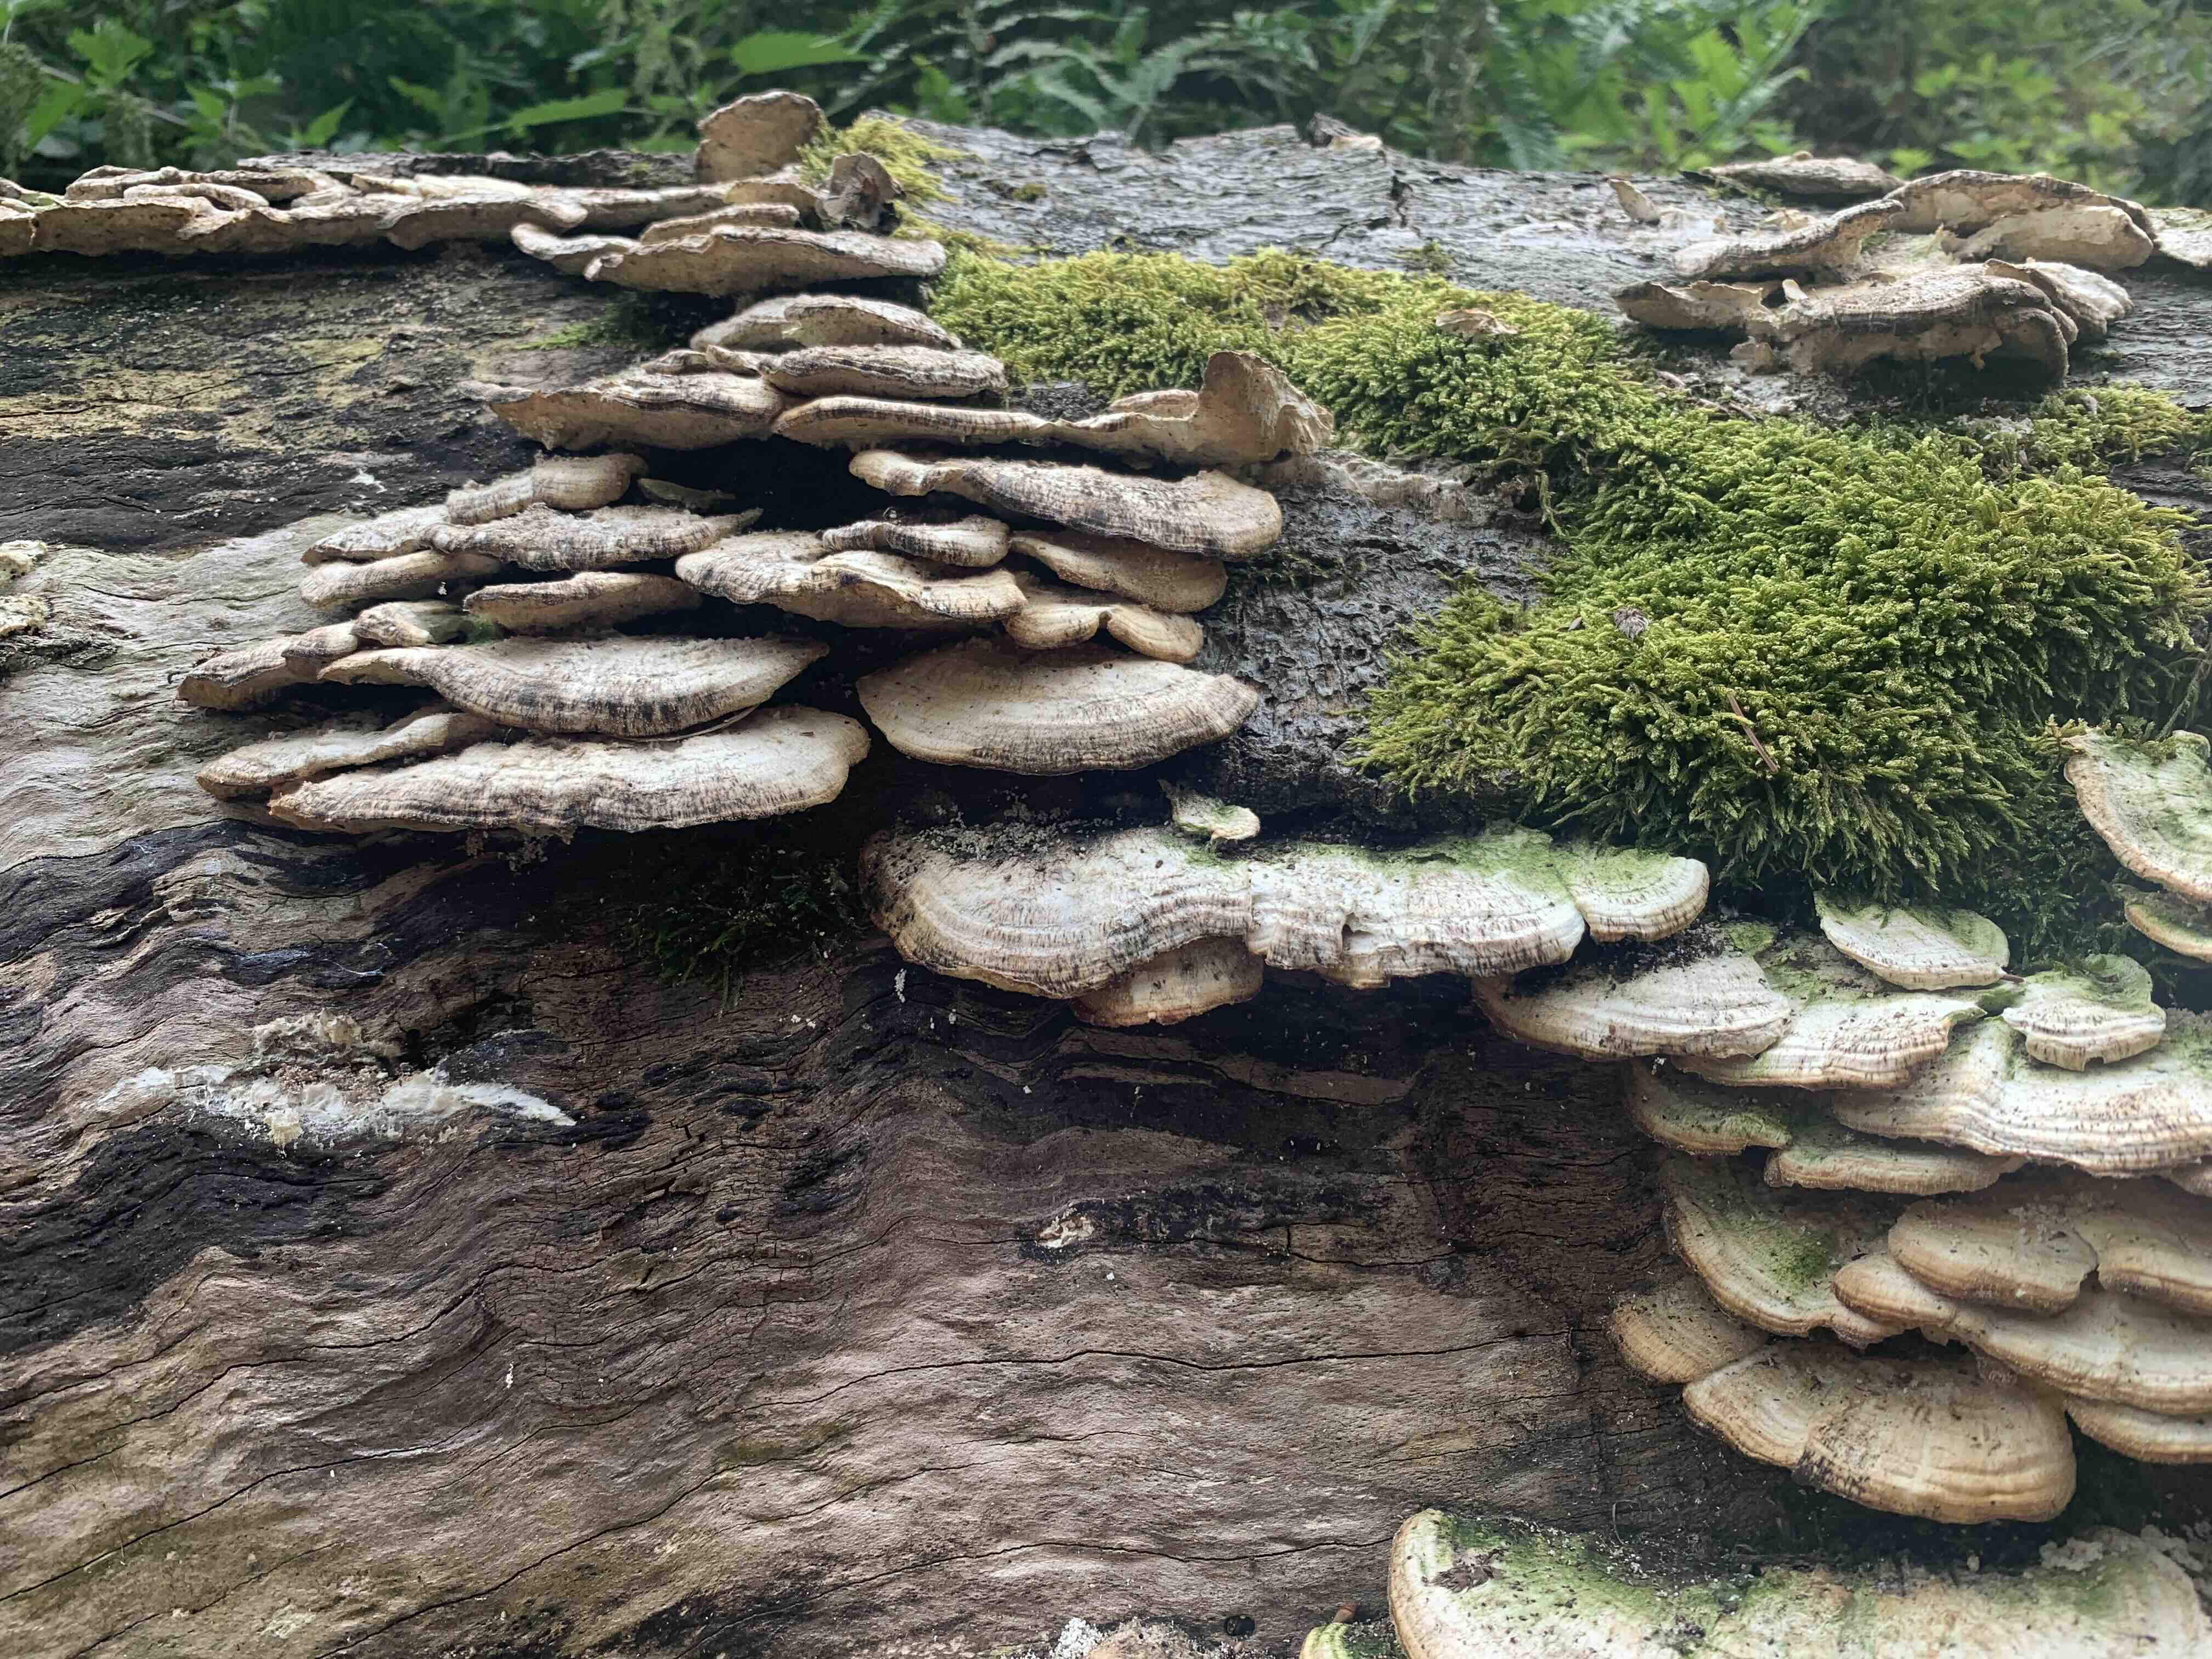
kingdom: Fungi
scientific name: Fungi
